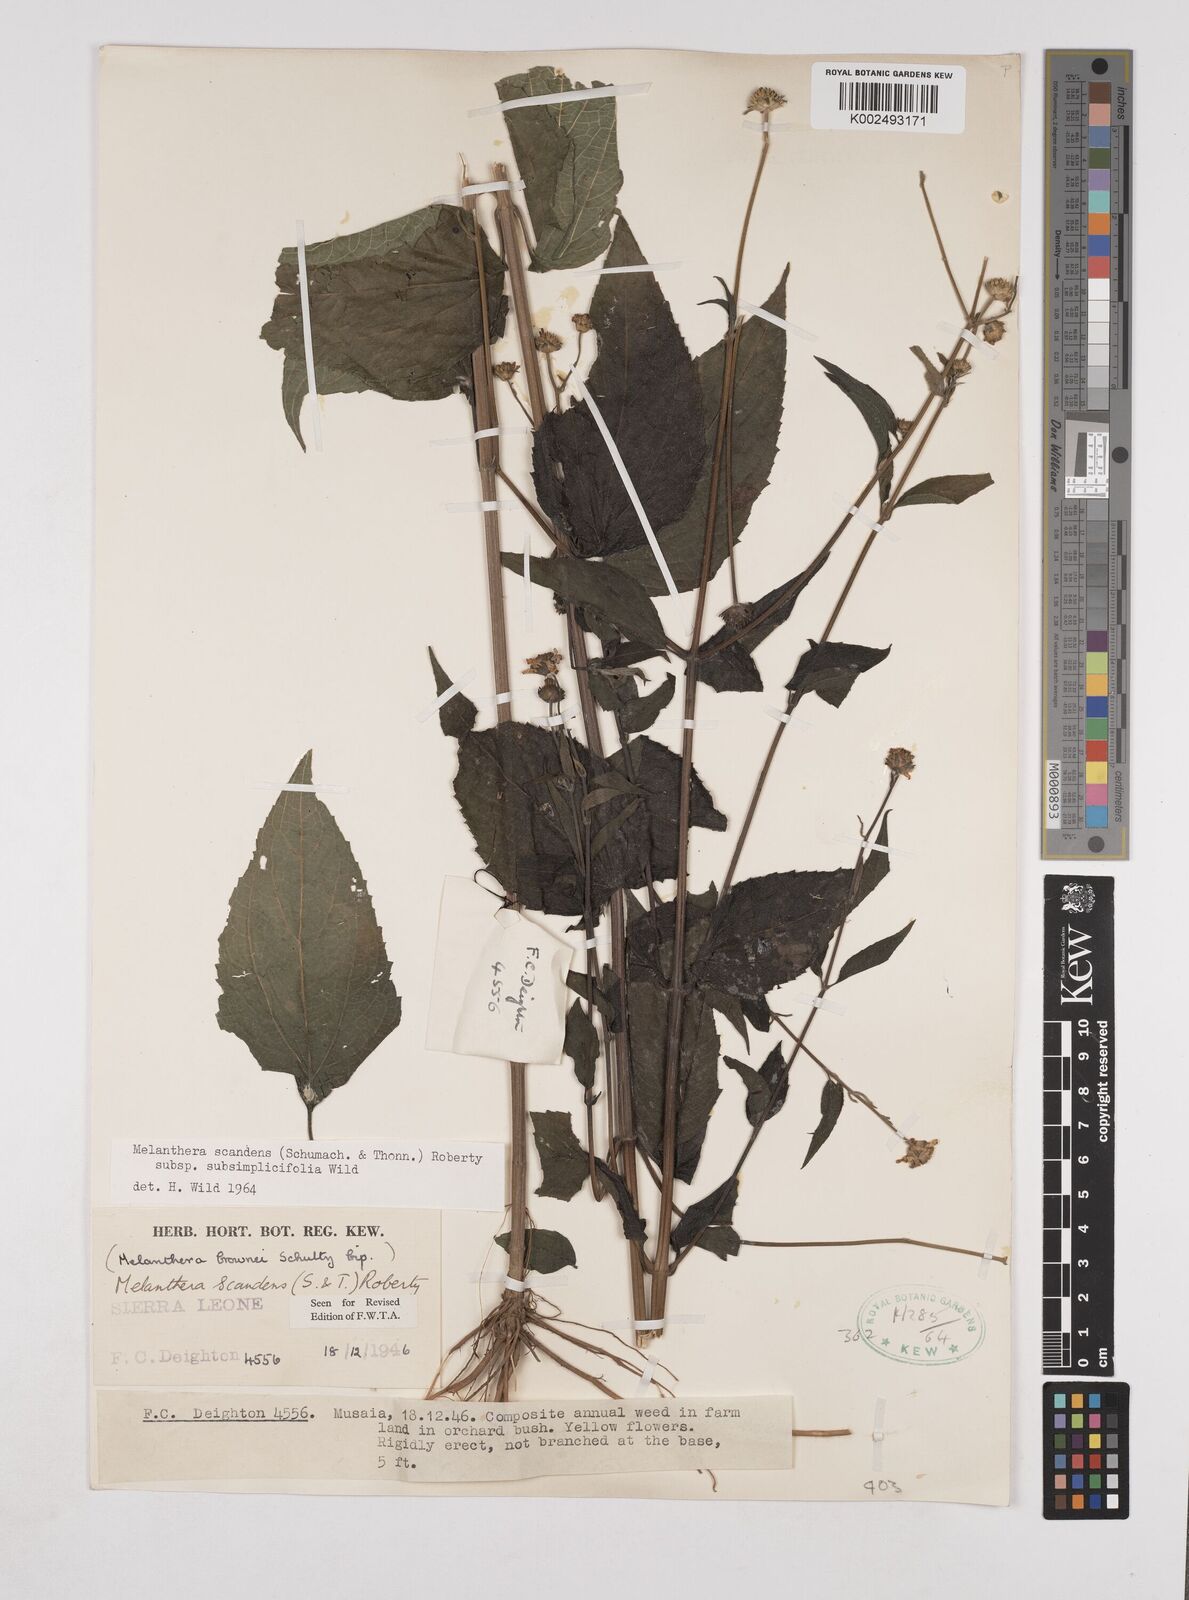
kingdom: Plantae
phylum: Tracheophyta
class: Magnoliopsida
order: Asterales
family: Asteraceae
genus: Lipotriche
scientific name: Lipotriche scandens
